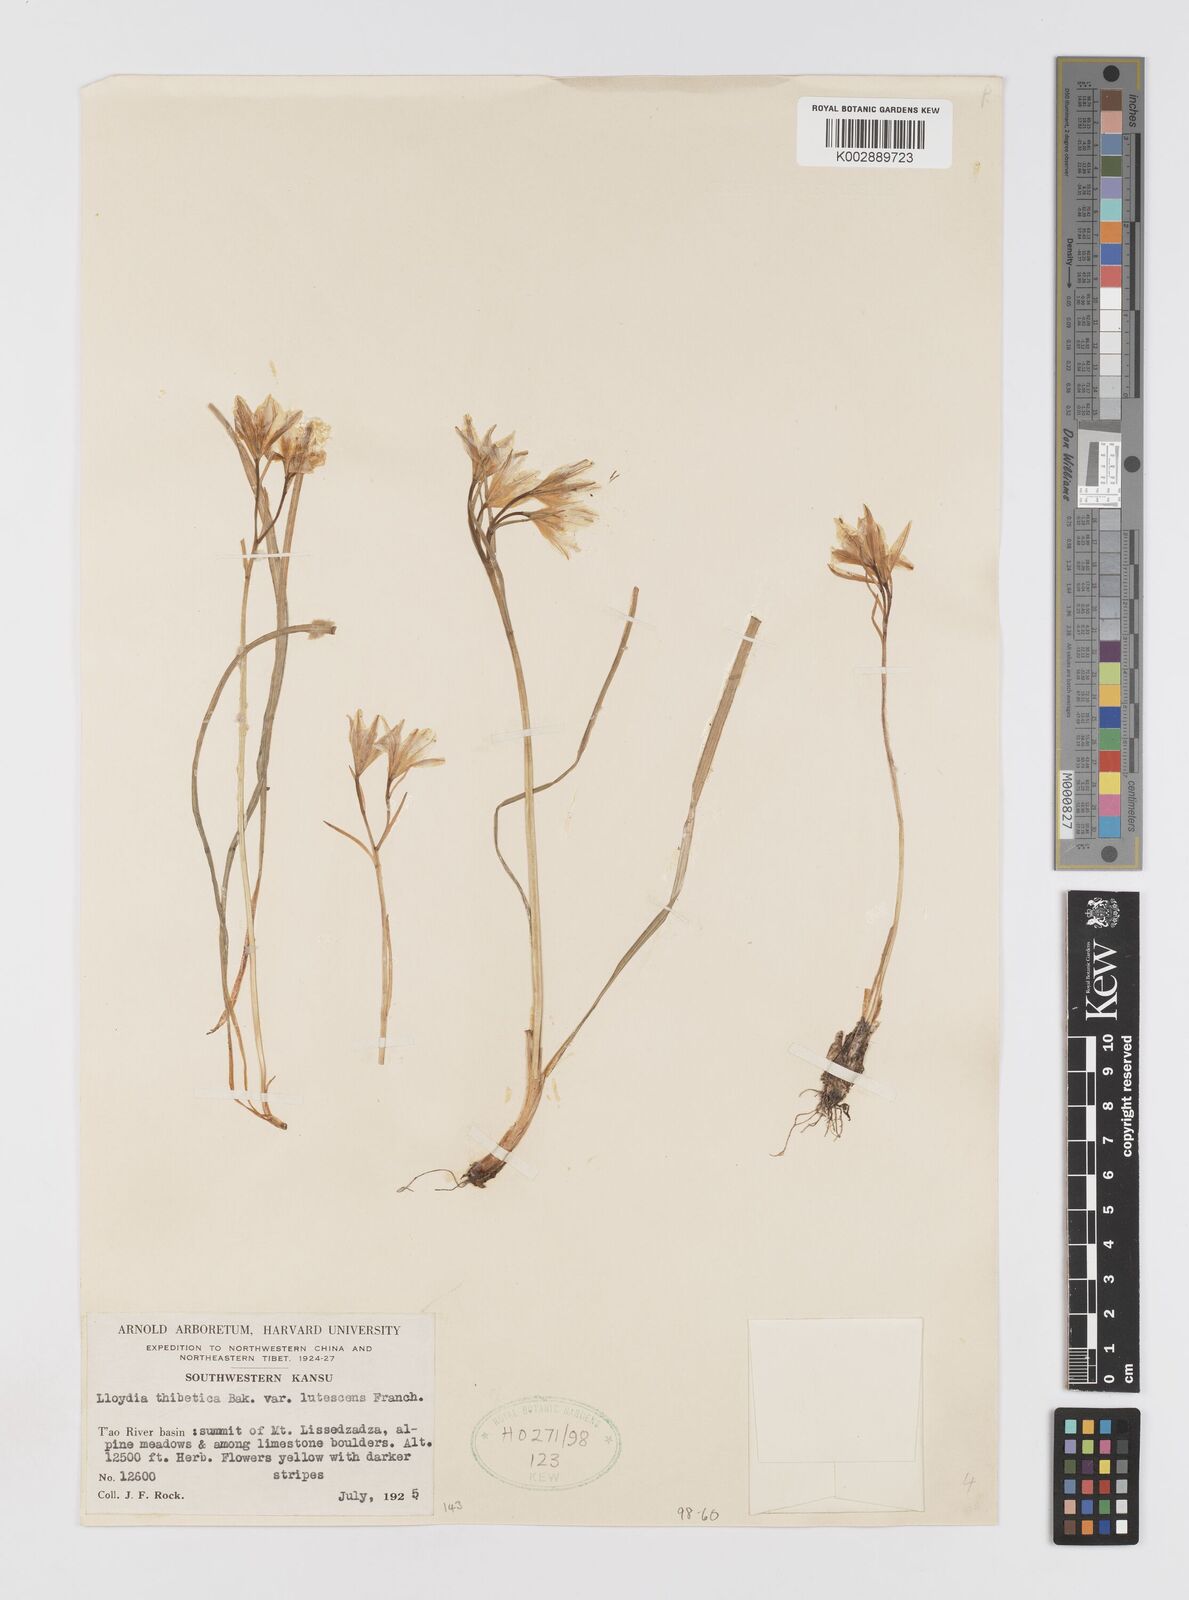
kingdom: Plantae
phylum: Tracheophyta
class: Liliopsida
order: Liliales
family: Liliaceae
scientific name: Liliaceae
